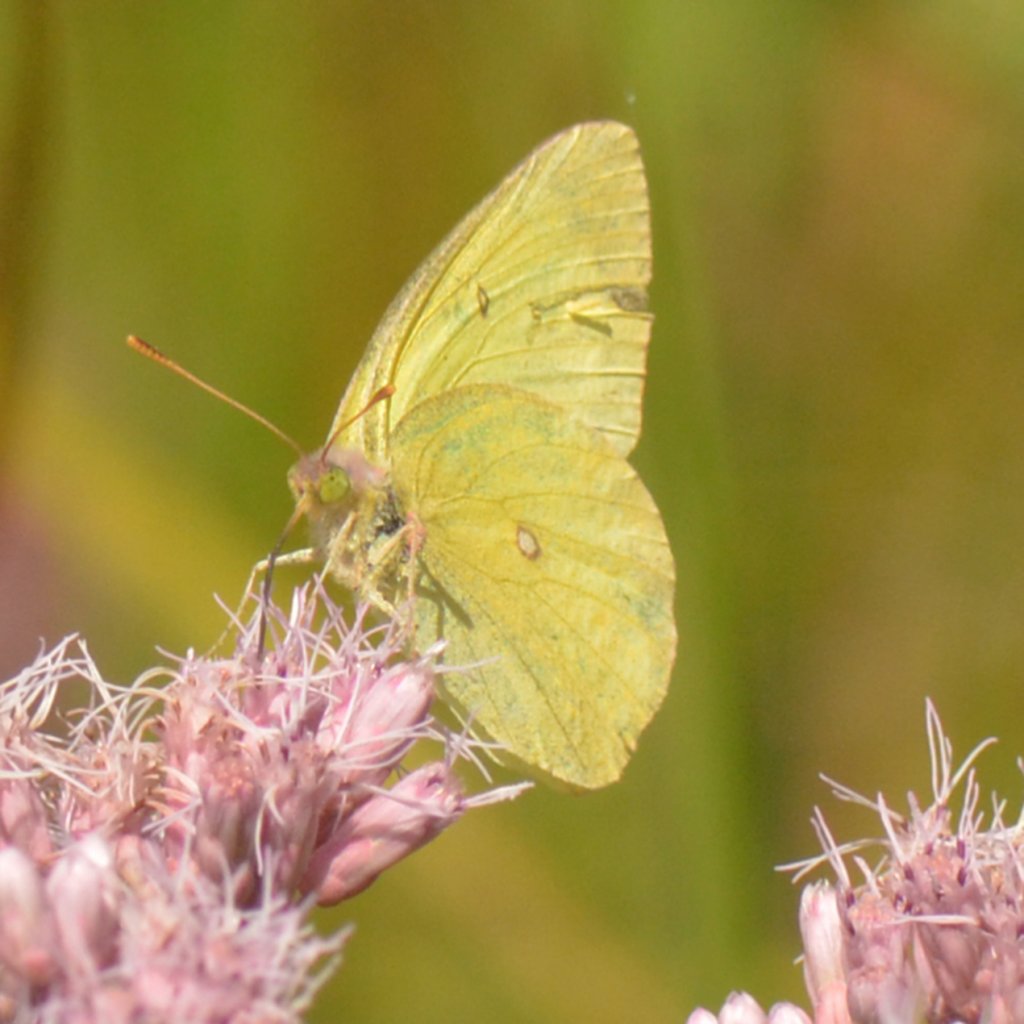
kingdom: Animalia
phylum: Arthropoda
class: Insecta
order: Lepidoptera
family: Pieridae
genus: Colias
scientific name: Colias interior
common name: Pink-edged Sulphur
